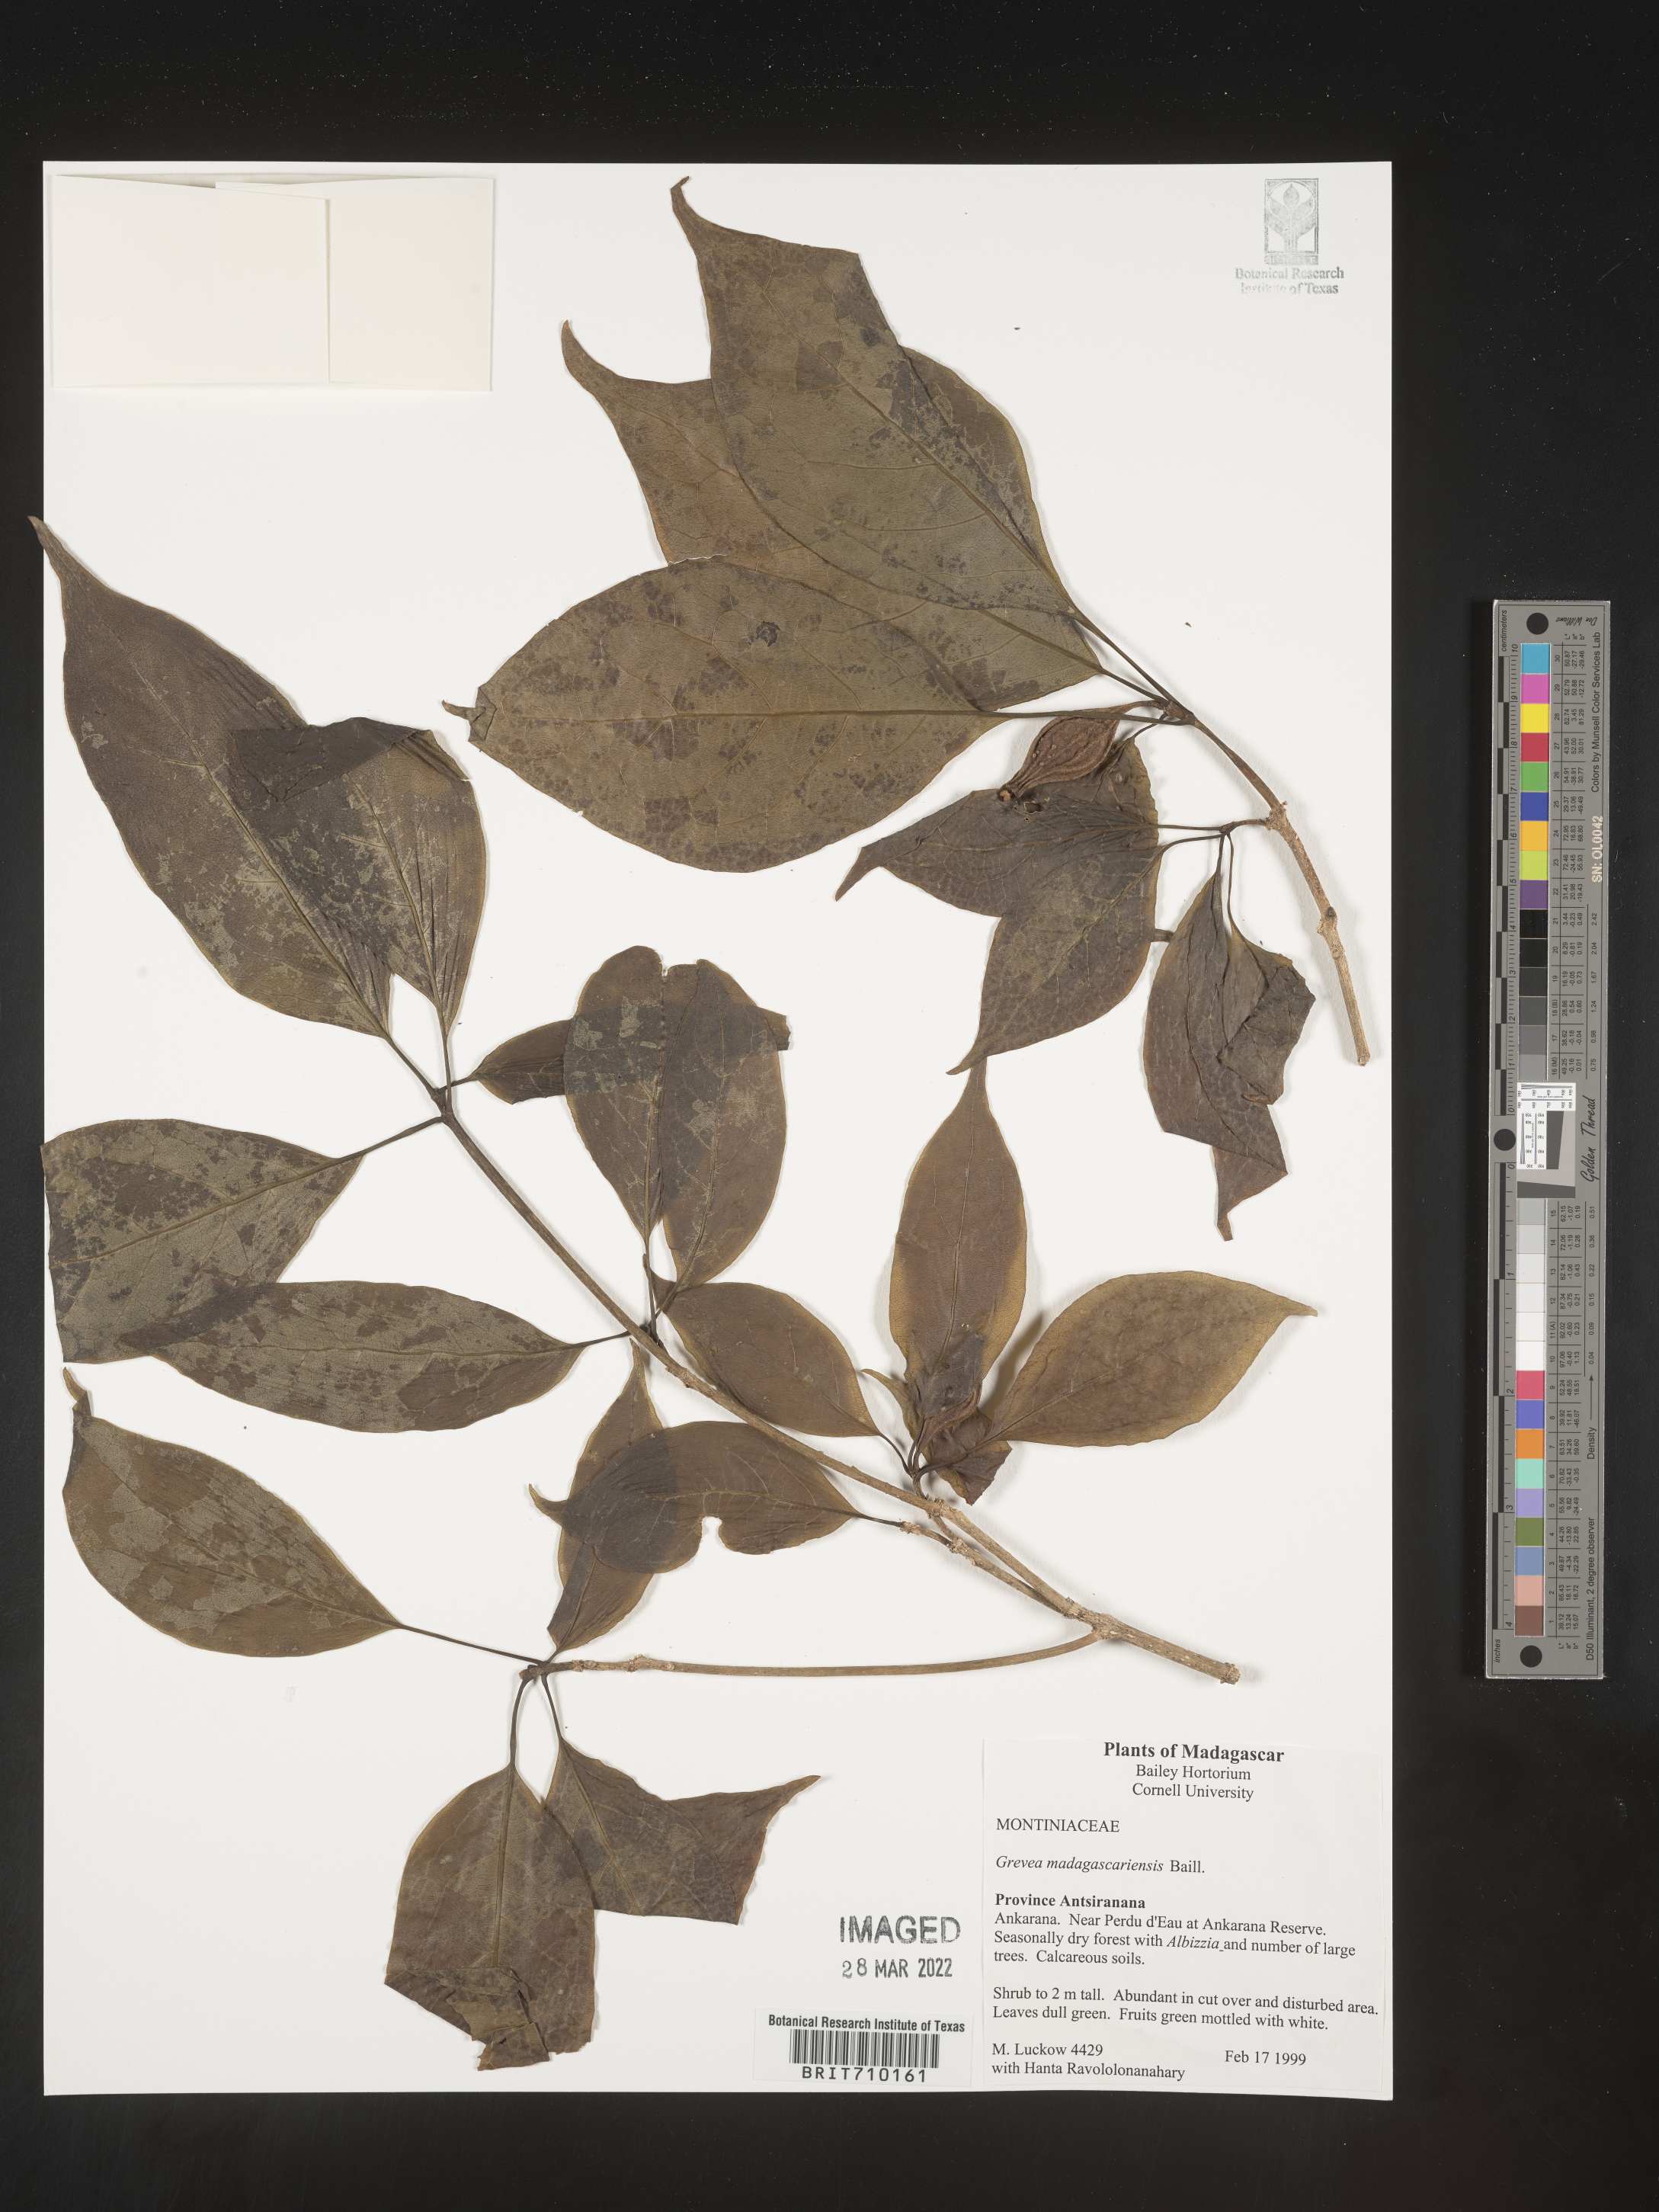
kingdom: Plantae
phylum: Tracheophyta
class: Magnoliopsida
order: Solanales
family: Montiniaceae
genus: Grevea
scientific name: Grevea
